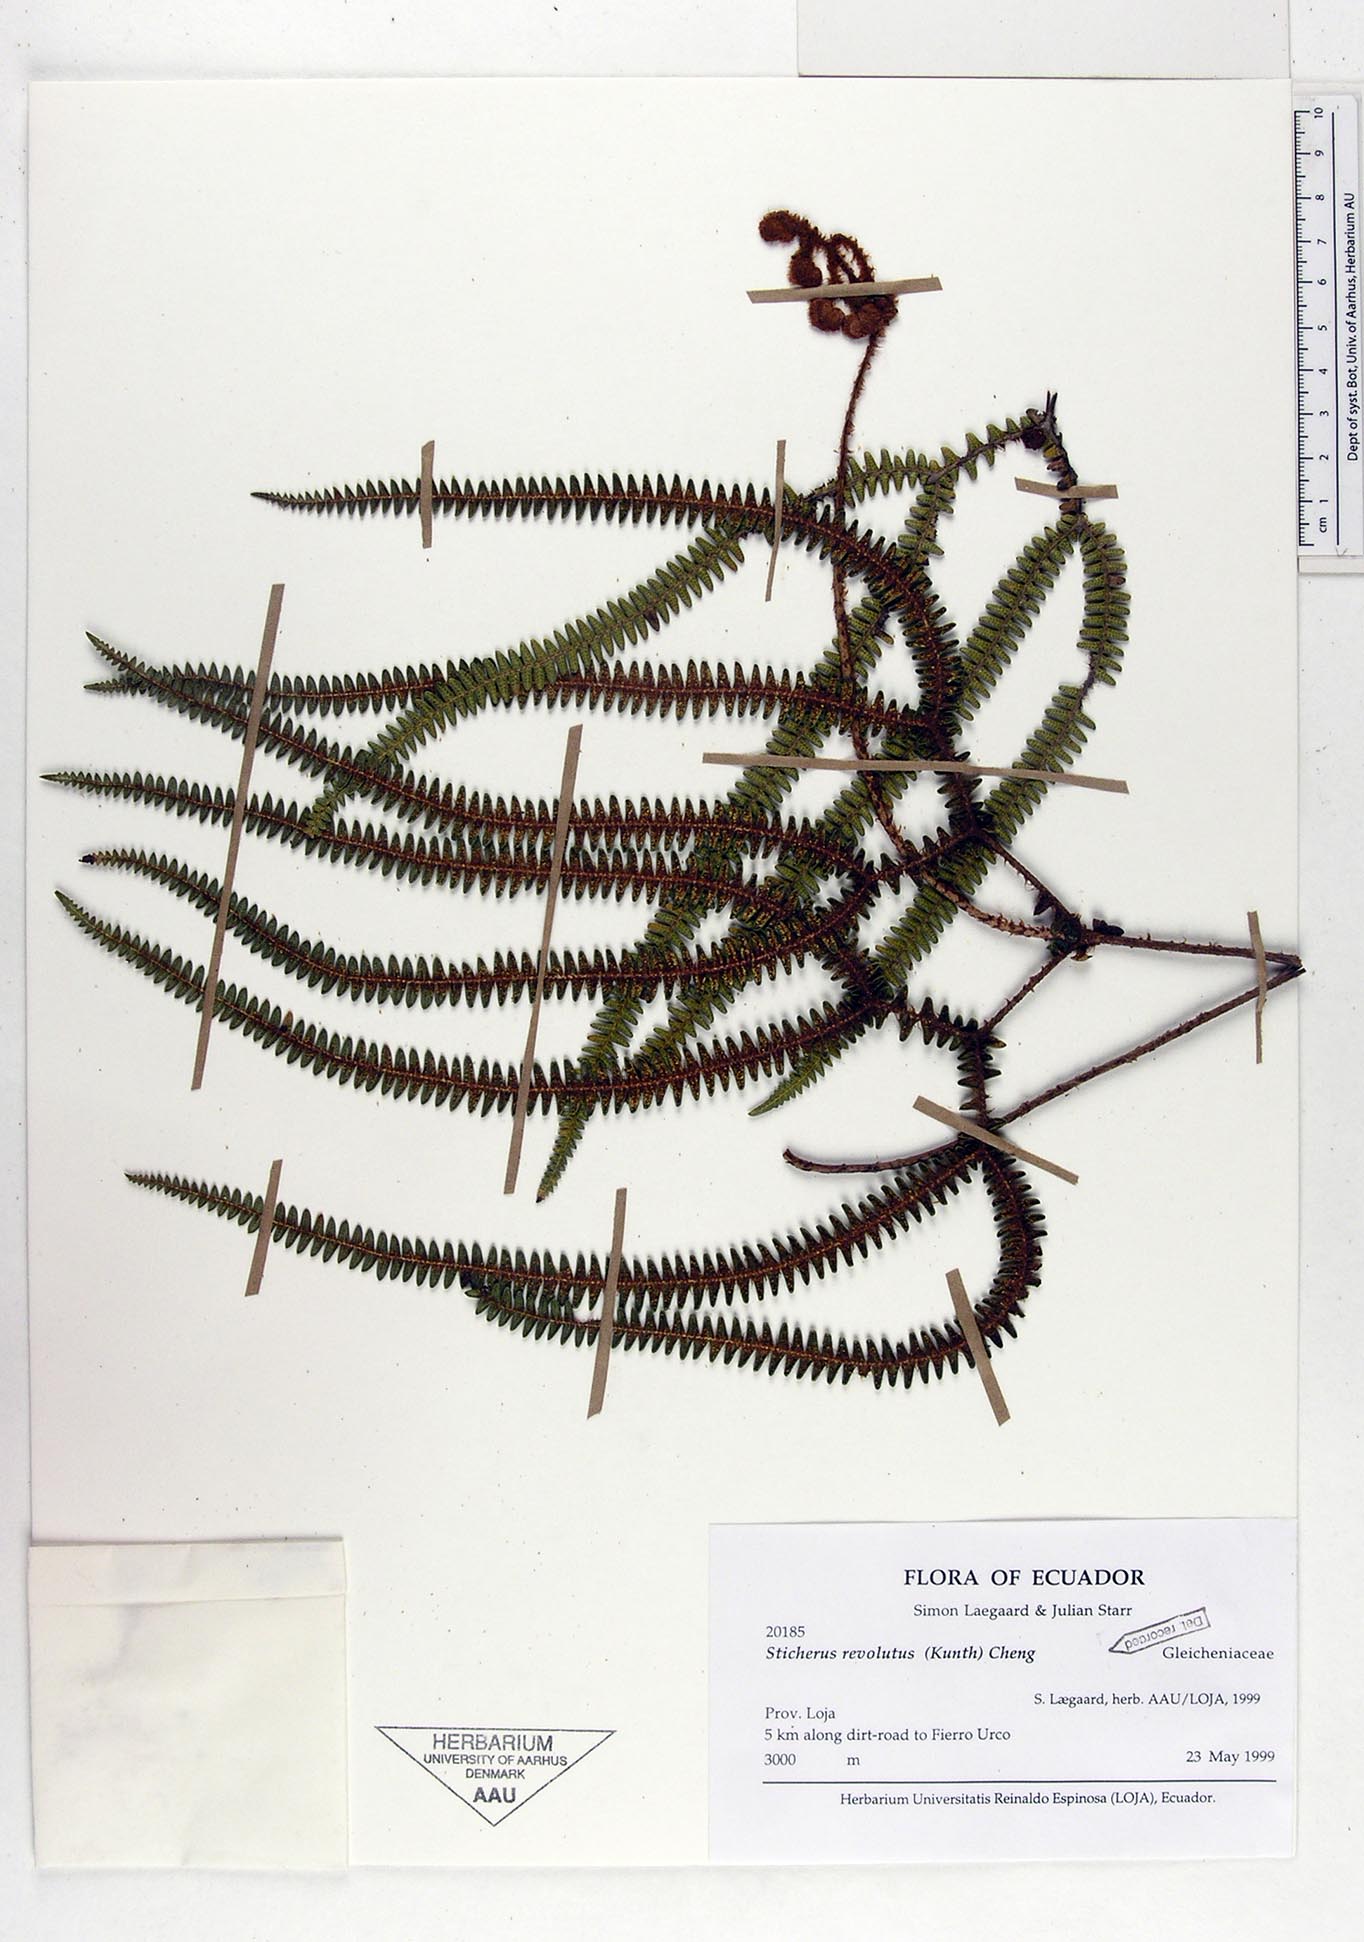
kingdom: Plantae
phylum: Tracheophyta
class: Polypodiopsida
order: Gleicheniales
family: Gleicheniaceae
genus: Sticherus
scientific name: Sticherus revolutus
